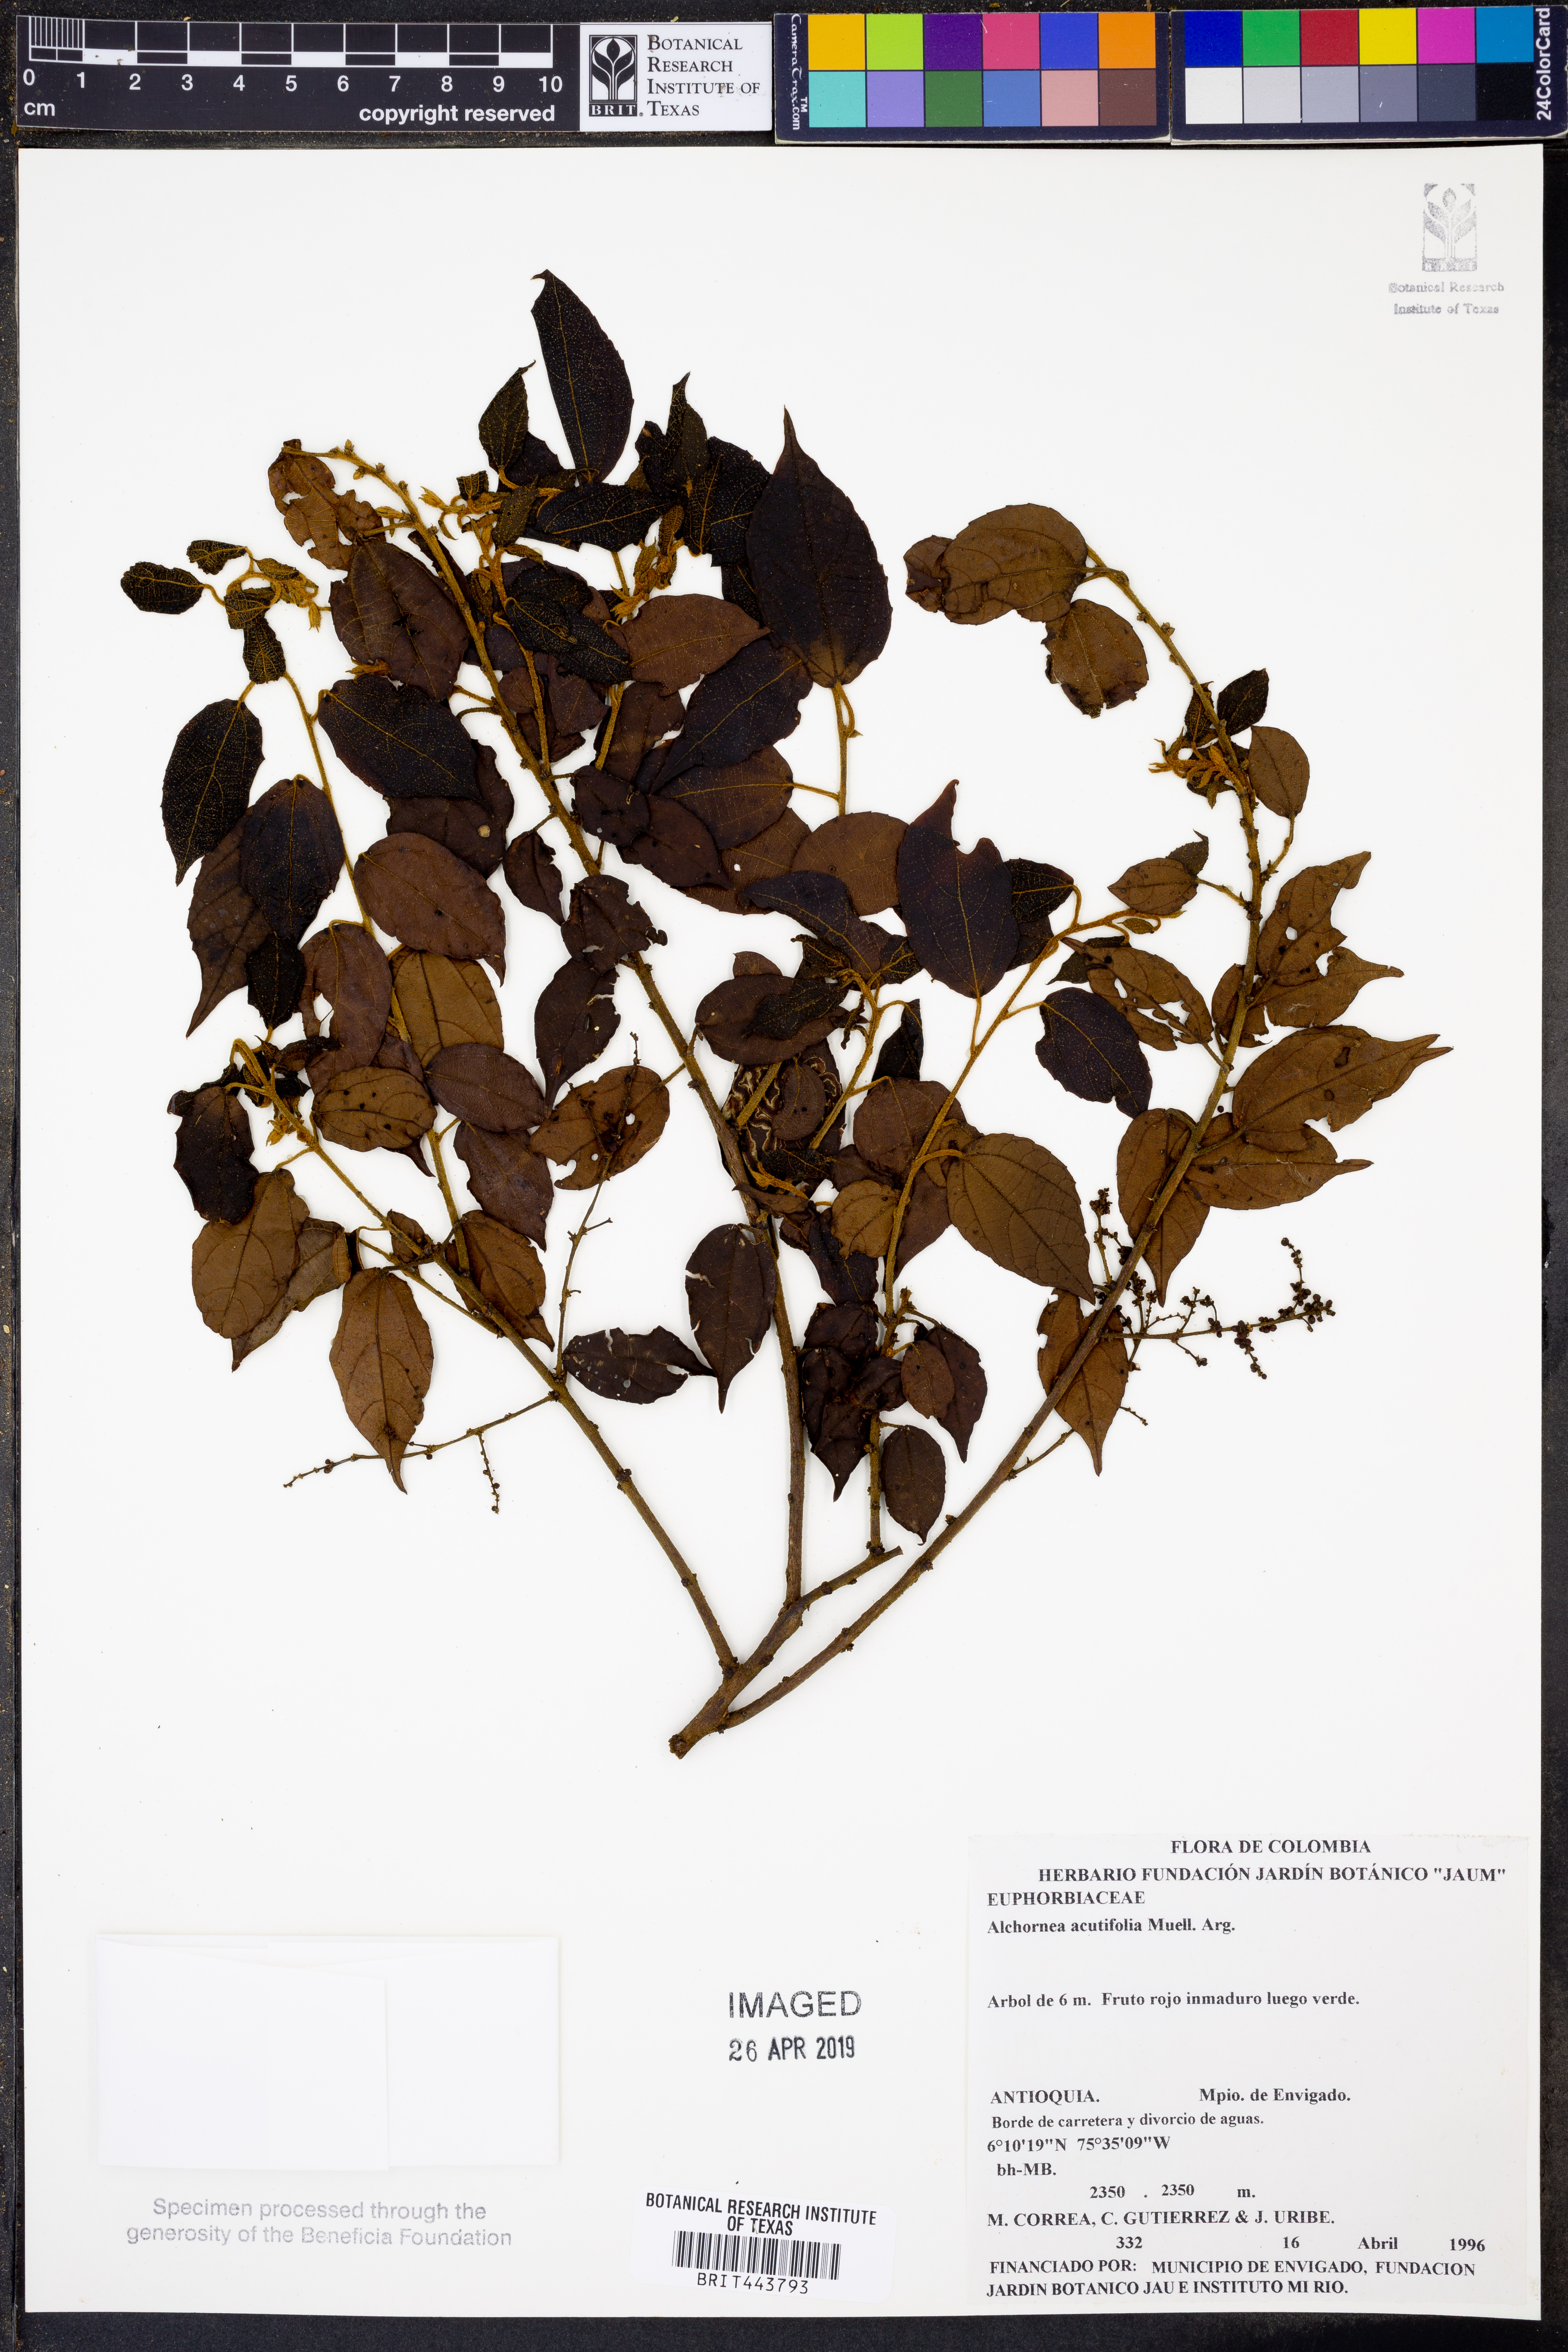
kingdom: Plantae
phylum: Tracheophyta
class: Magnoliopsida
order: Malpighiales
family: Euphorbiaceae
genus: Alchornea
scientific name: Alchornea acutifolia
